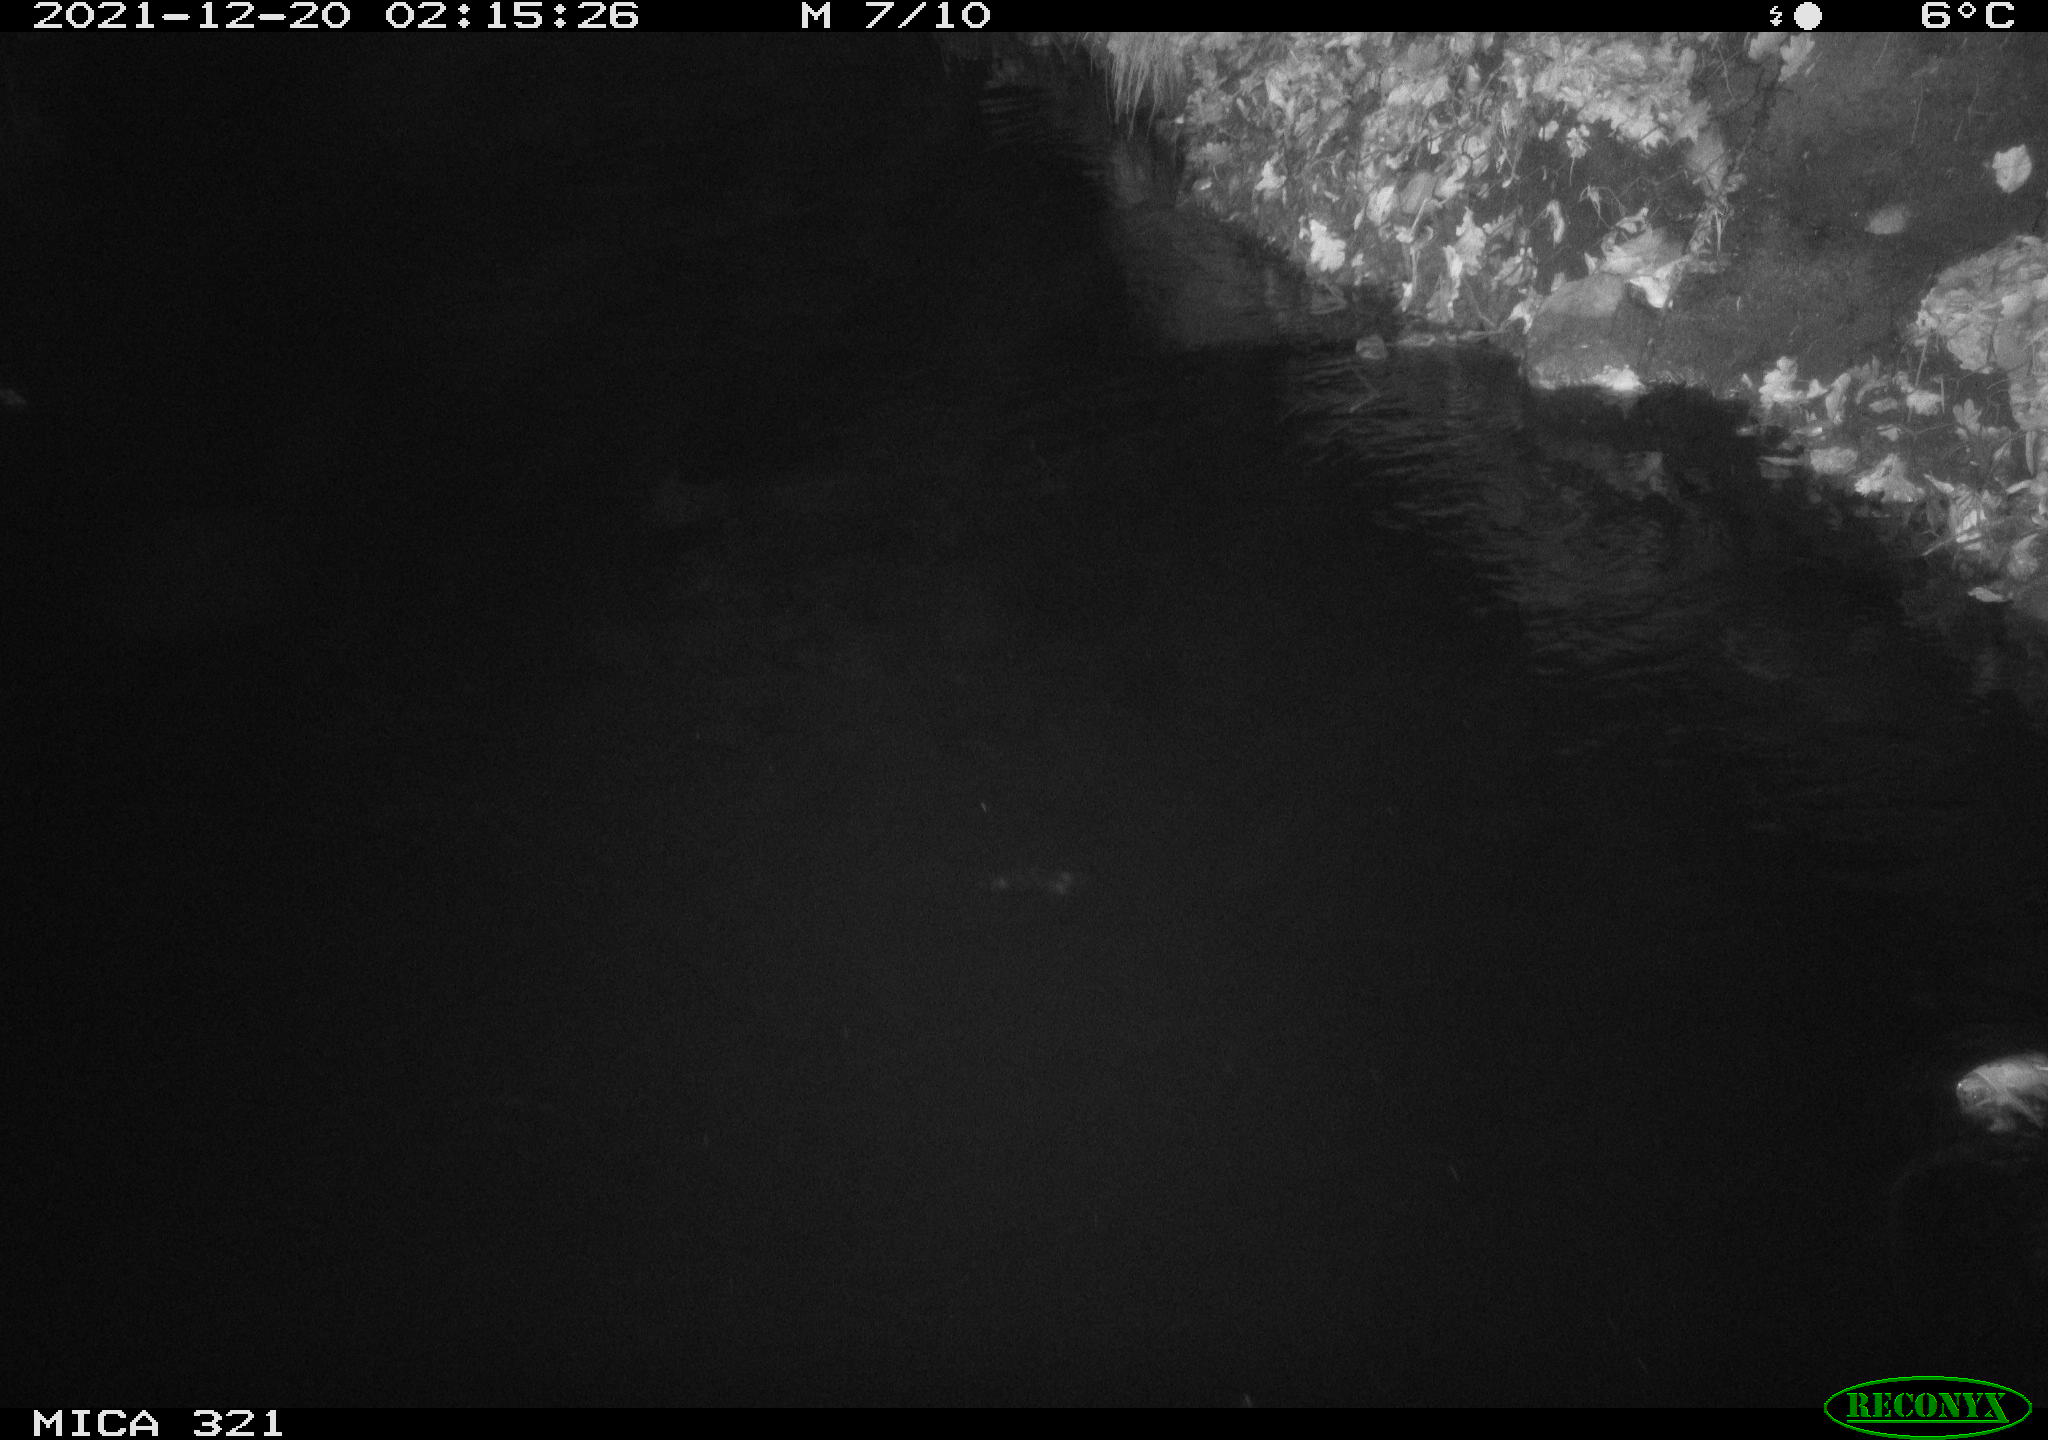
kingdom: Animalia
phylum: Chordata
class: Aves
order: Anseriformes
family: Anatidae
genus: Anas
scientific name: Anas platyrhynchos
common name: Mallard
